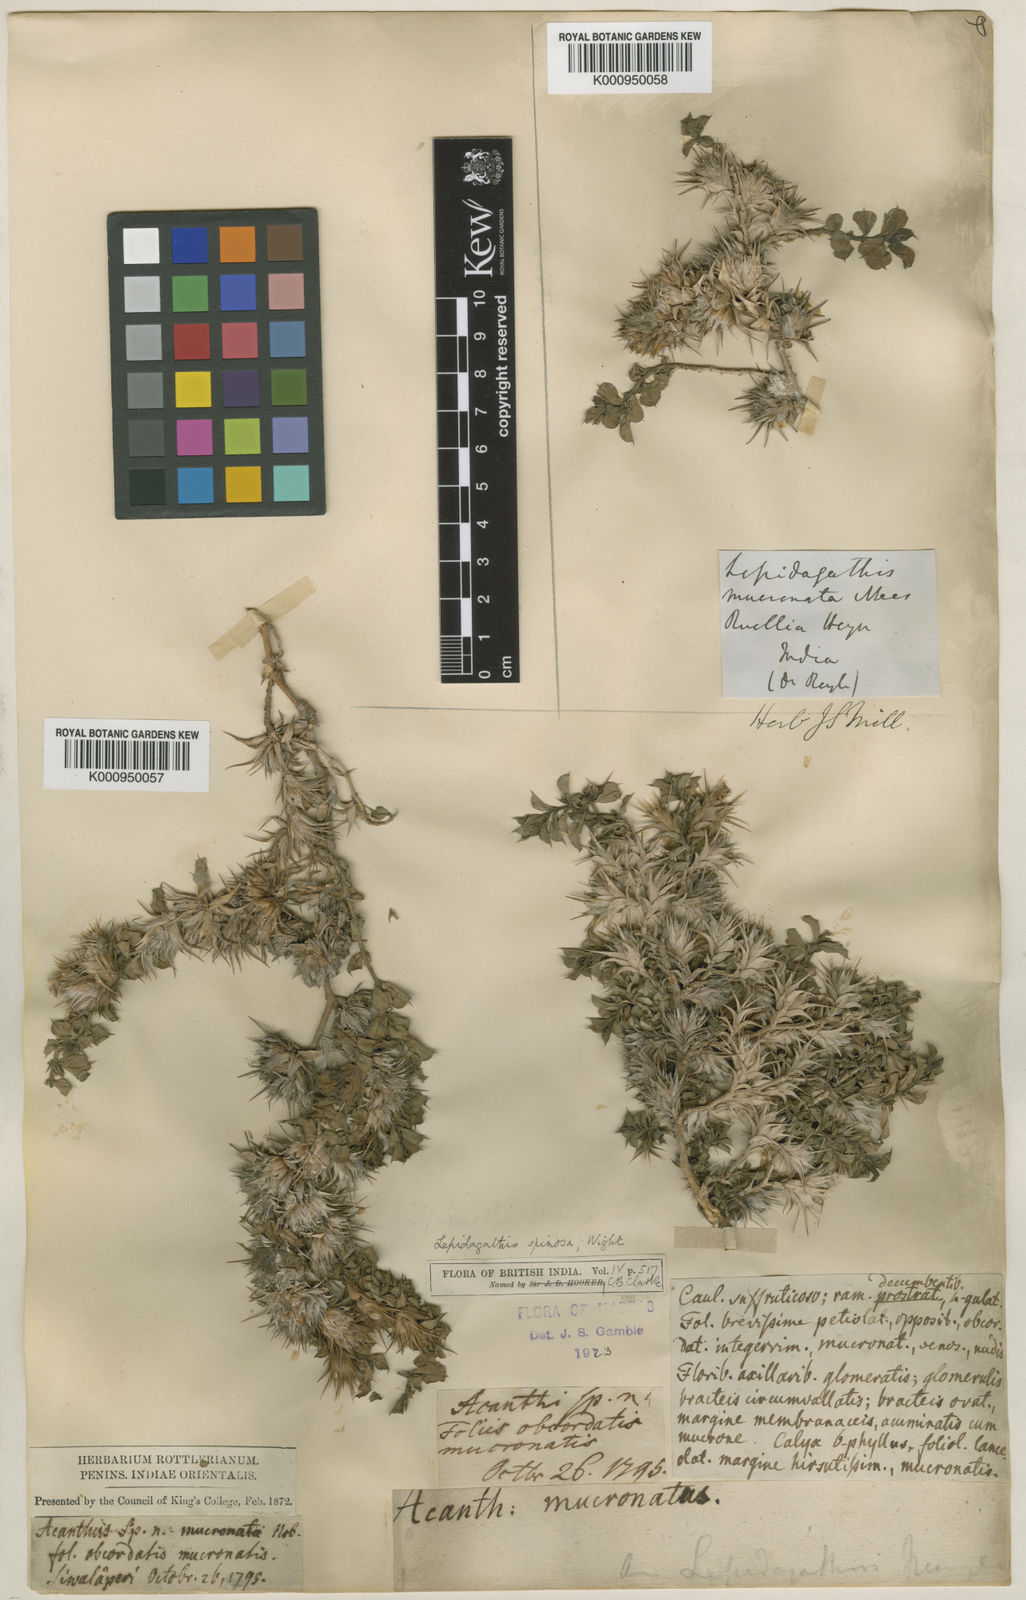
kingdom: Plantae
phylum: Tracheophyta
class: Magnoliopsida
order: Lamiales
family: Acanthaceae
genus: Lepidagathis
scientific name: Lepidagathis spinosa
